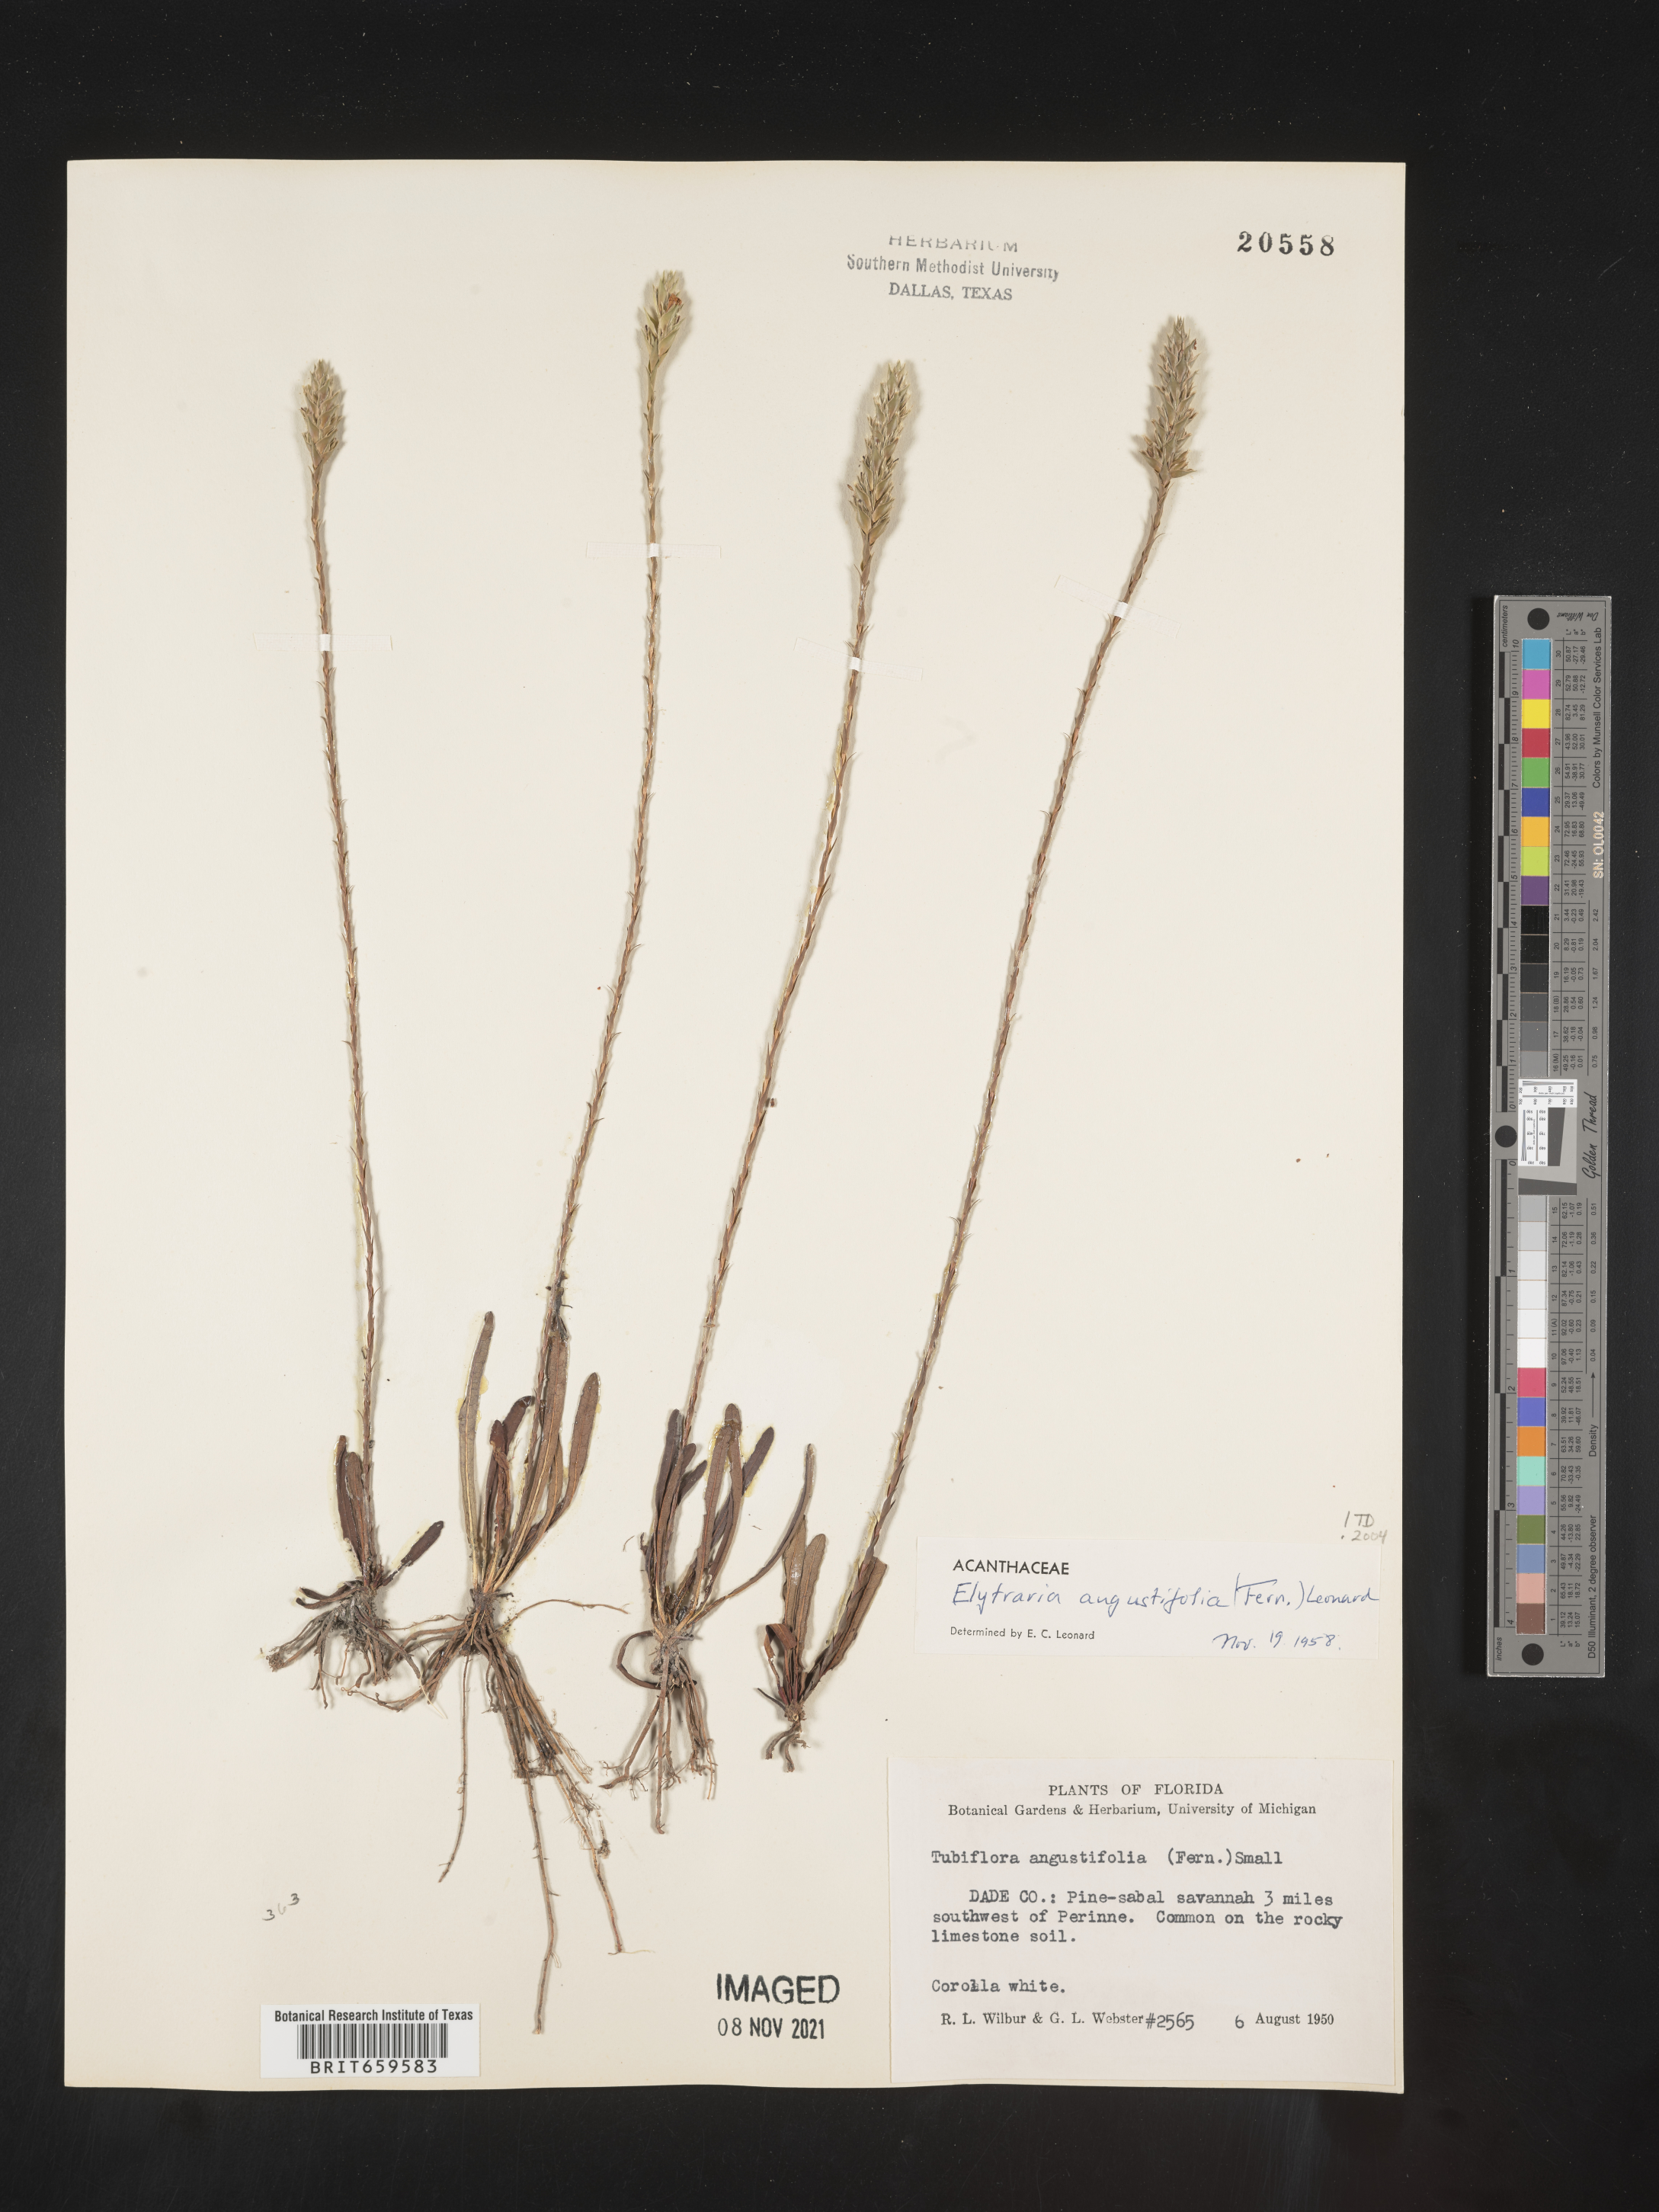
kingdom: Plantae
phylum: Tracheophyta
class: Magnoliopsida
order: Lamiales
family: Acanthaceae
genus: Elytraria
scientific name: Elytraria imbricata
